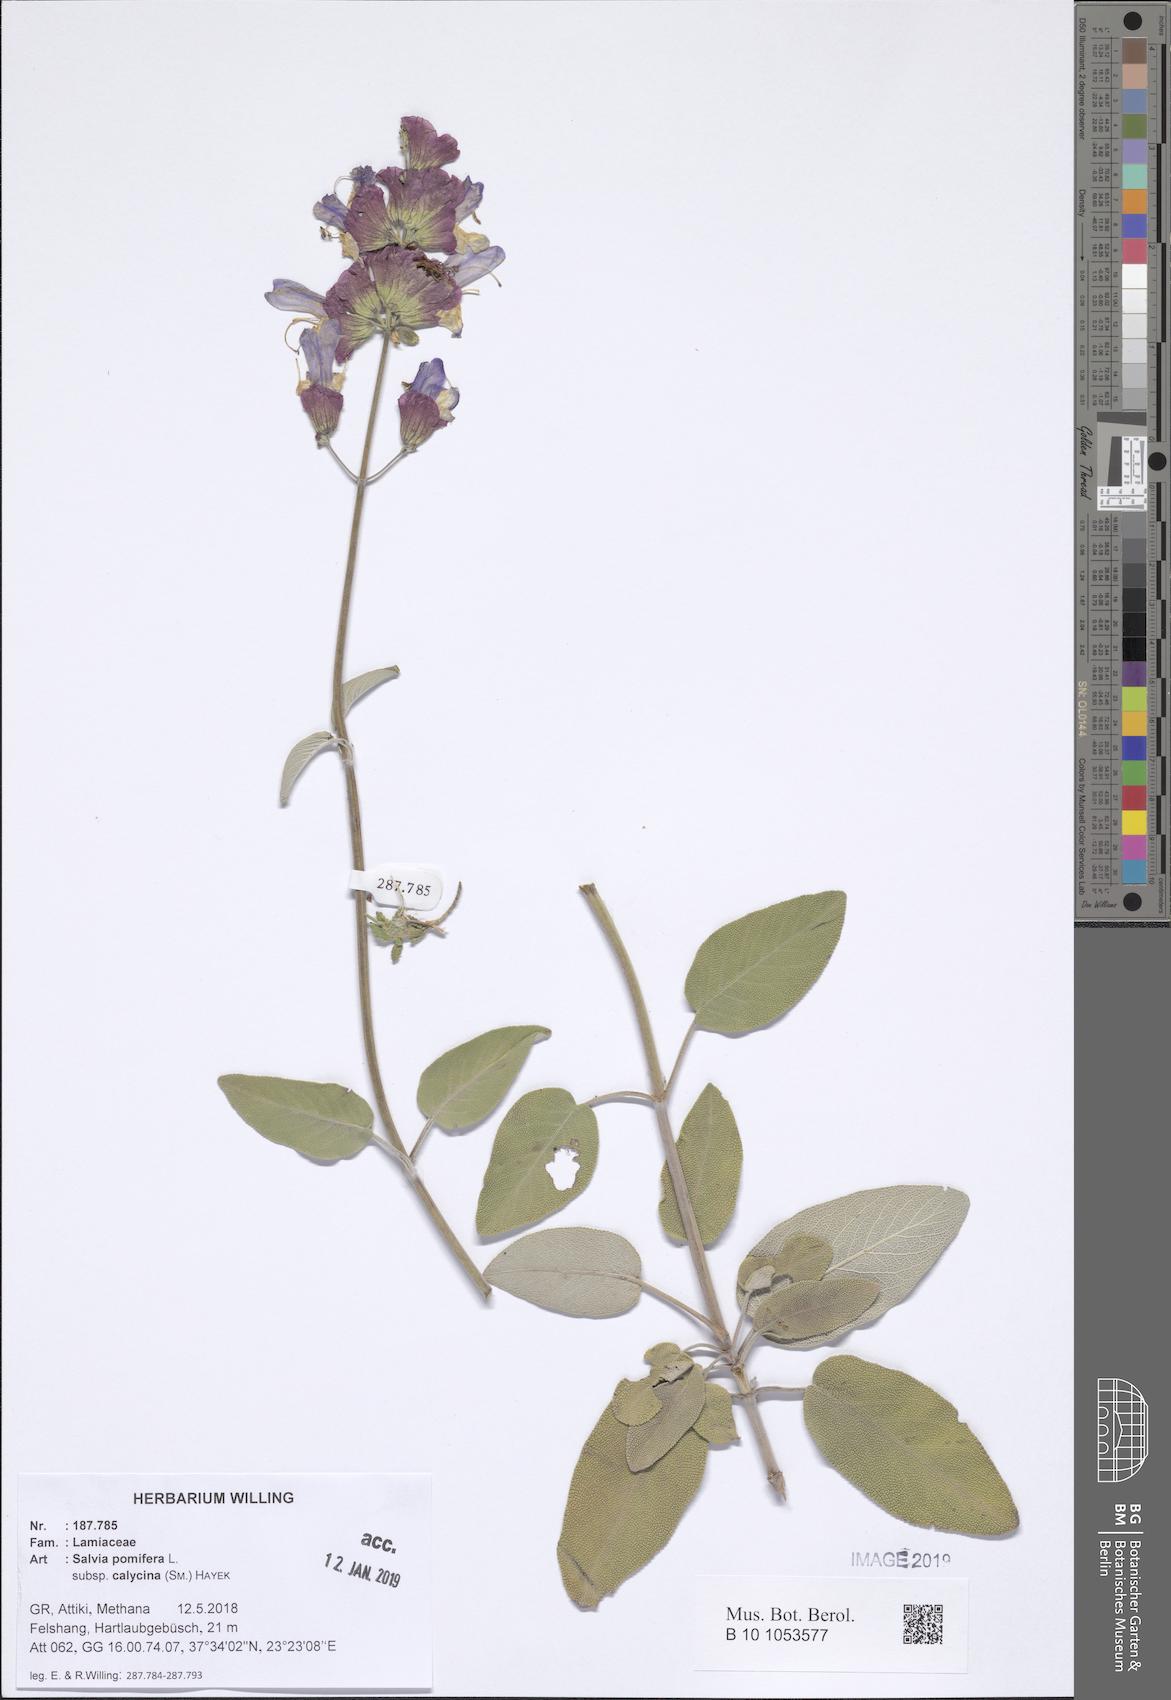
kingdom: Plantae
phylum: Tracheophyta
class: Magnoliopsida
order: Lamiales
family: Lamiaceae
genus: Salvia
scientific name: Salvia pomifera
